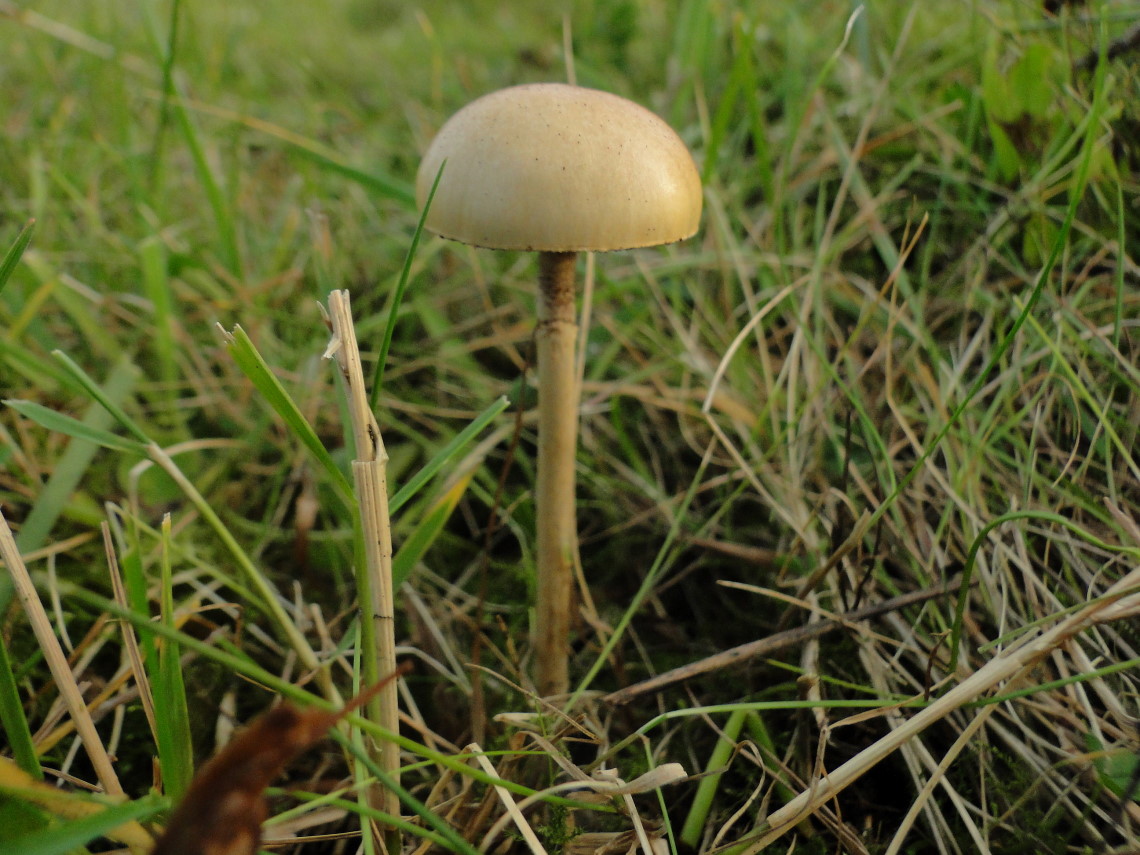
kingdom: Fungi
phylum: Basidiomycota
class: Agaricomycetes
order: Agaricales
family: Strophariaceae
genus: Protostropharia
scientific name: Protostropharia semiglobata
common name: halvkugleformet bredblad
